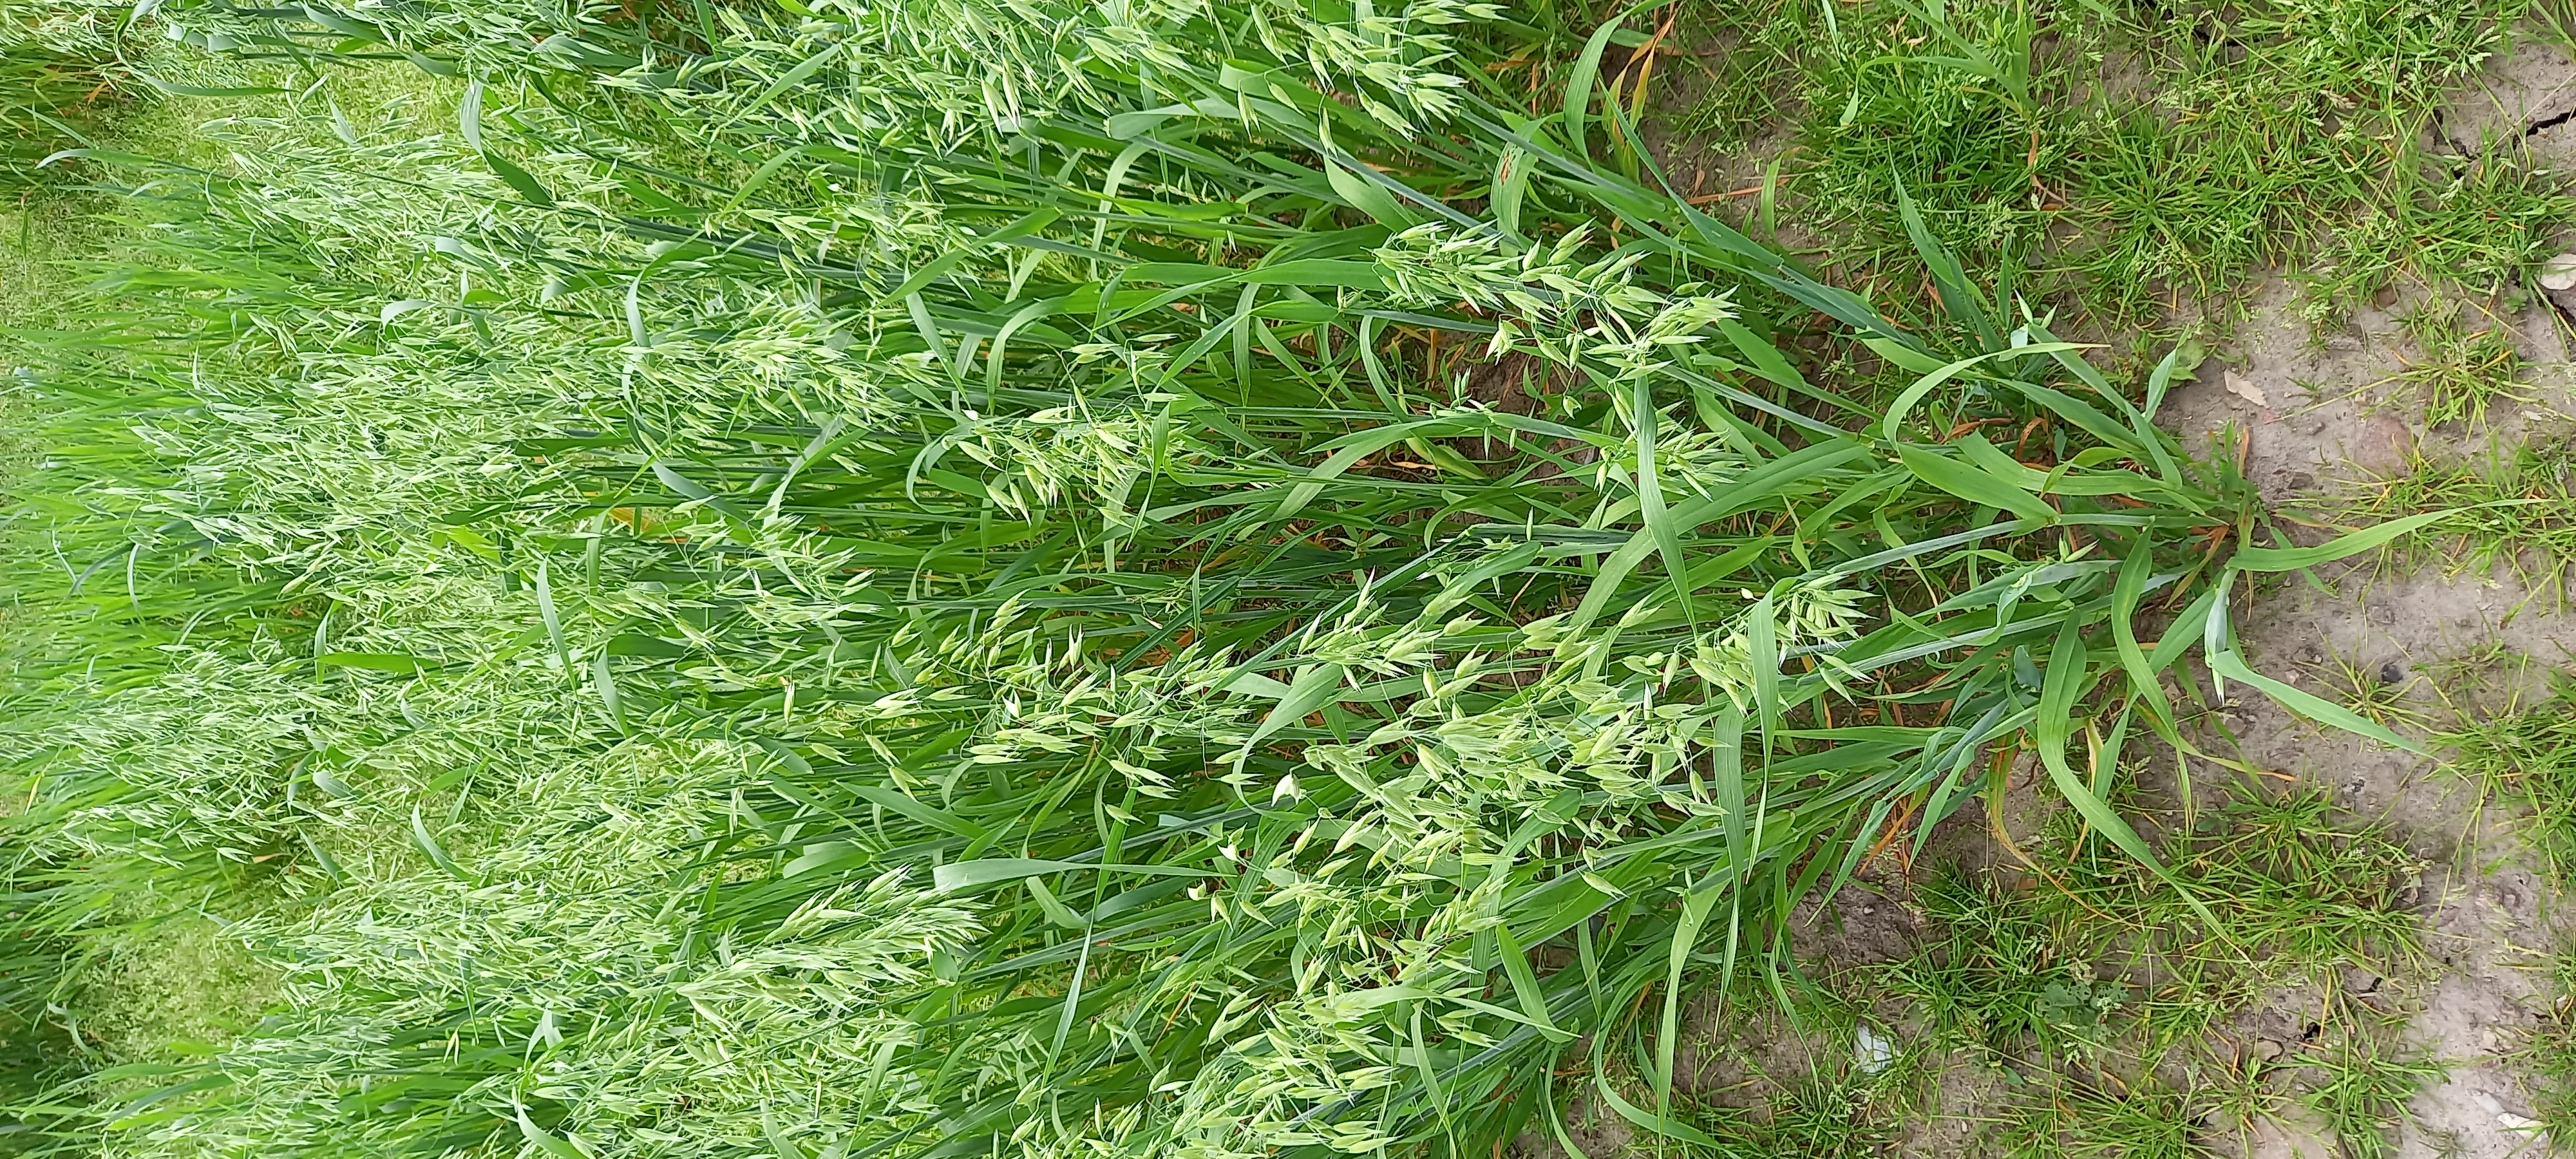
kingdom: Plantae
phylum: Tracheophyta
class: Liliopsida
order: Poales
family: Poaceae
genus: Avena
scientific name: Avena sativa
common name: Oat
